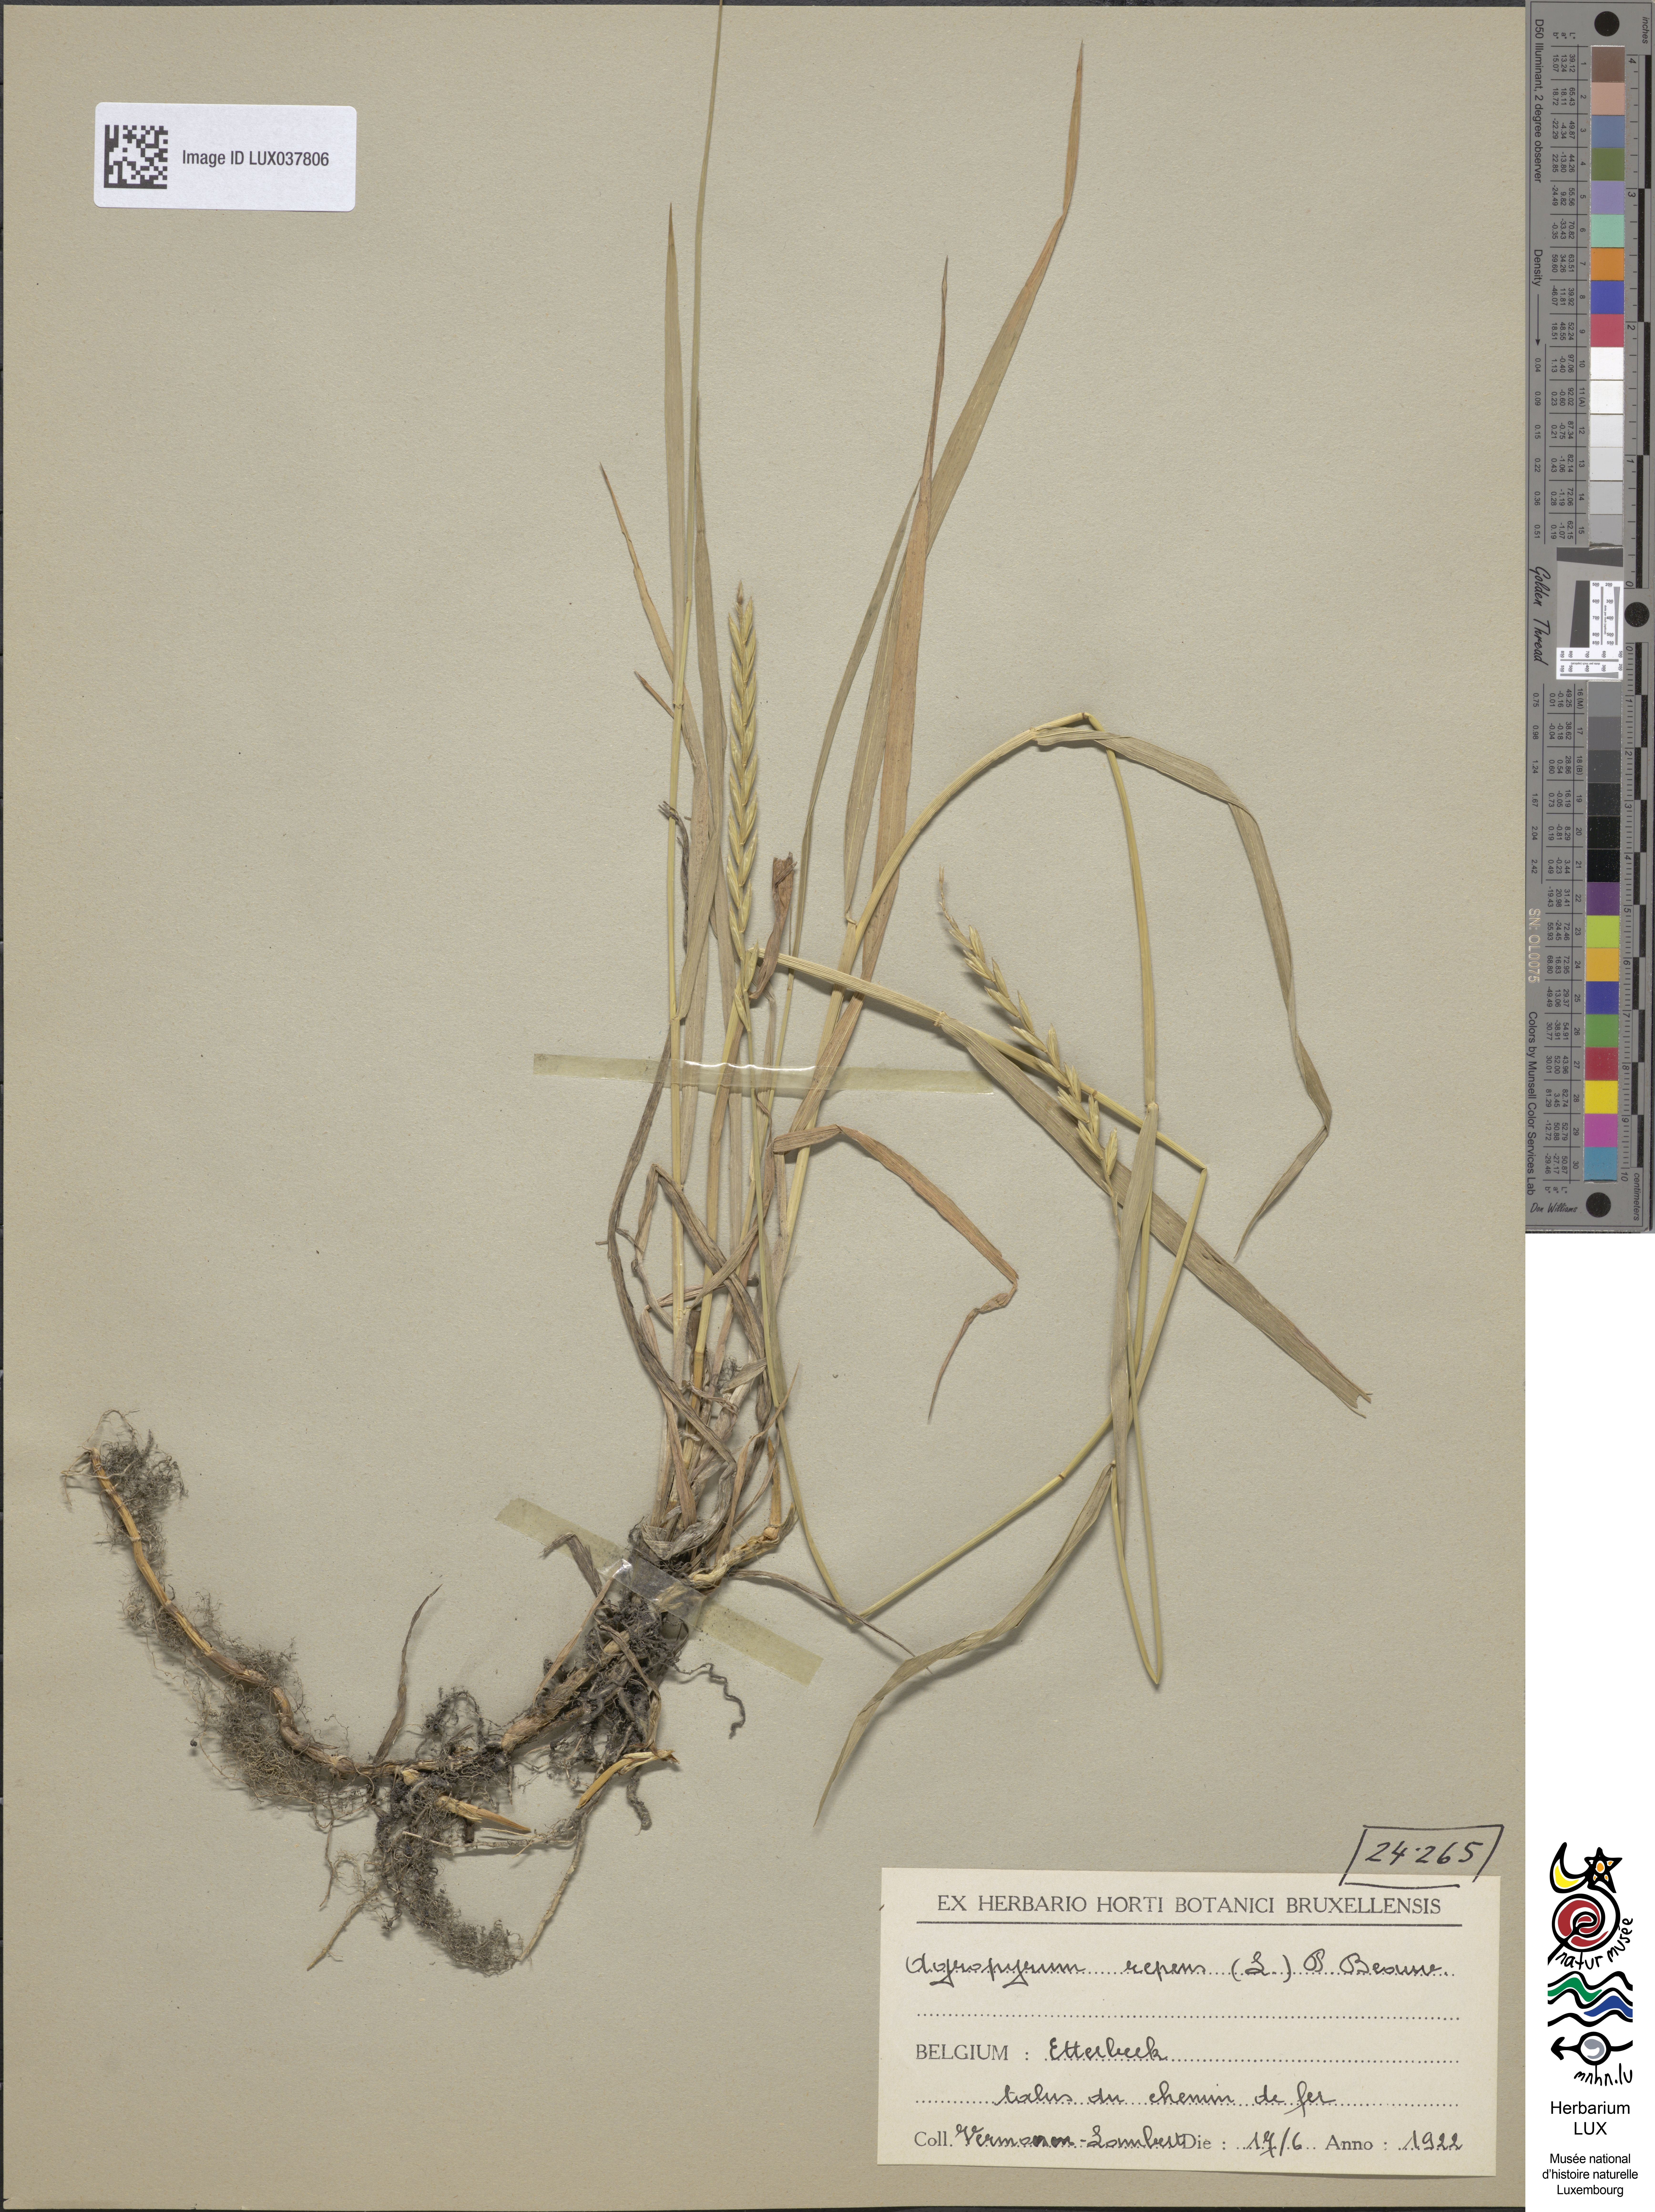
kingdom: Plantae
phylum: Tracheophyta
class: Liliopsida
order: Poales
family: Poaceae
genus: Elymus
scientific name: Elymus repens
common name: Quackgrass
